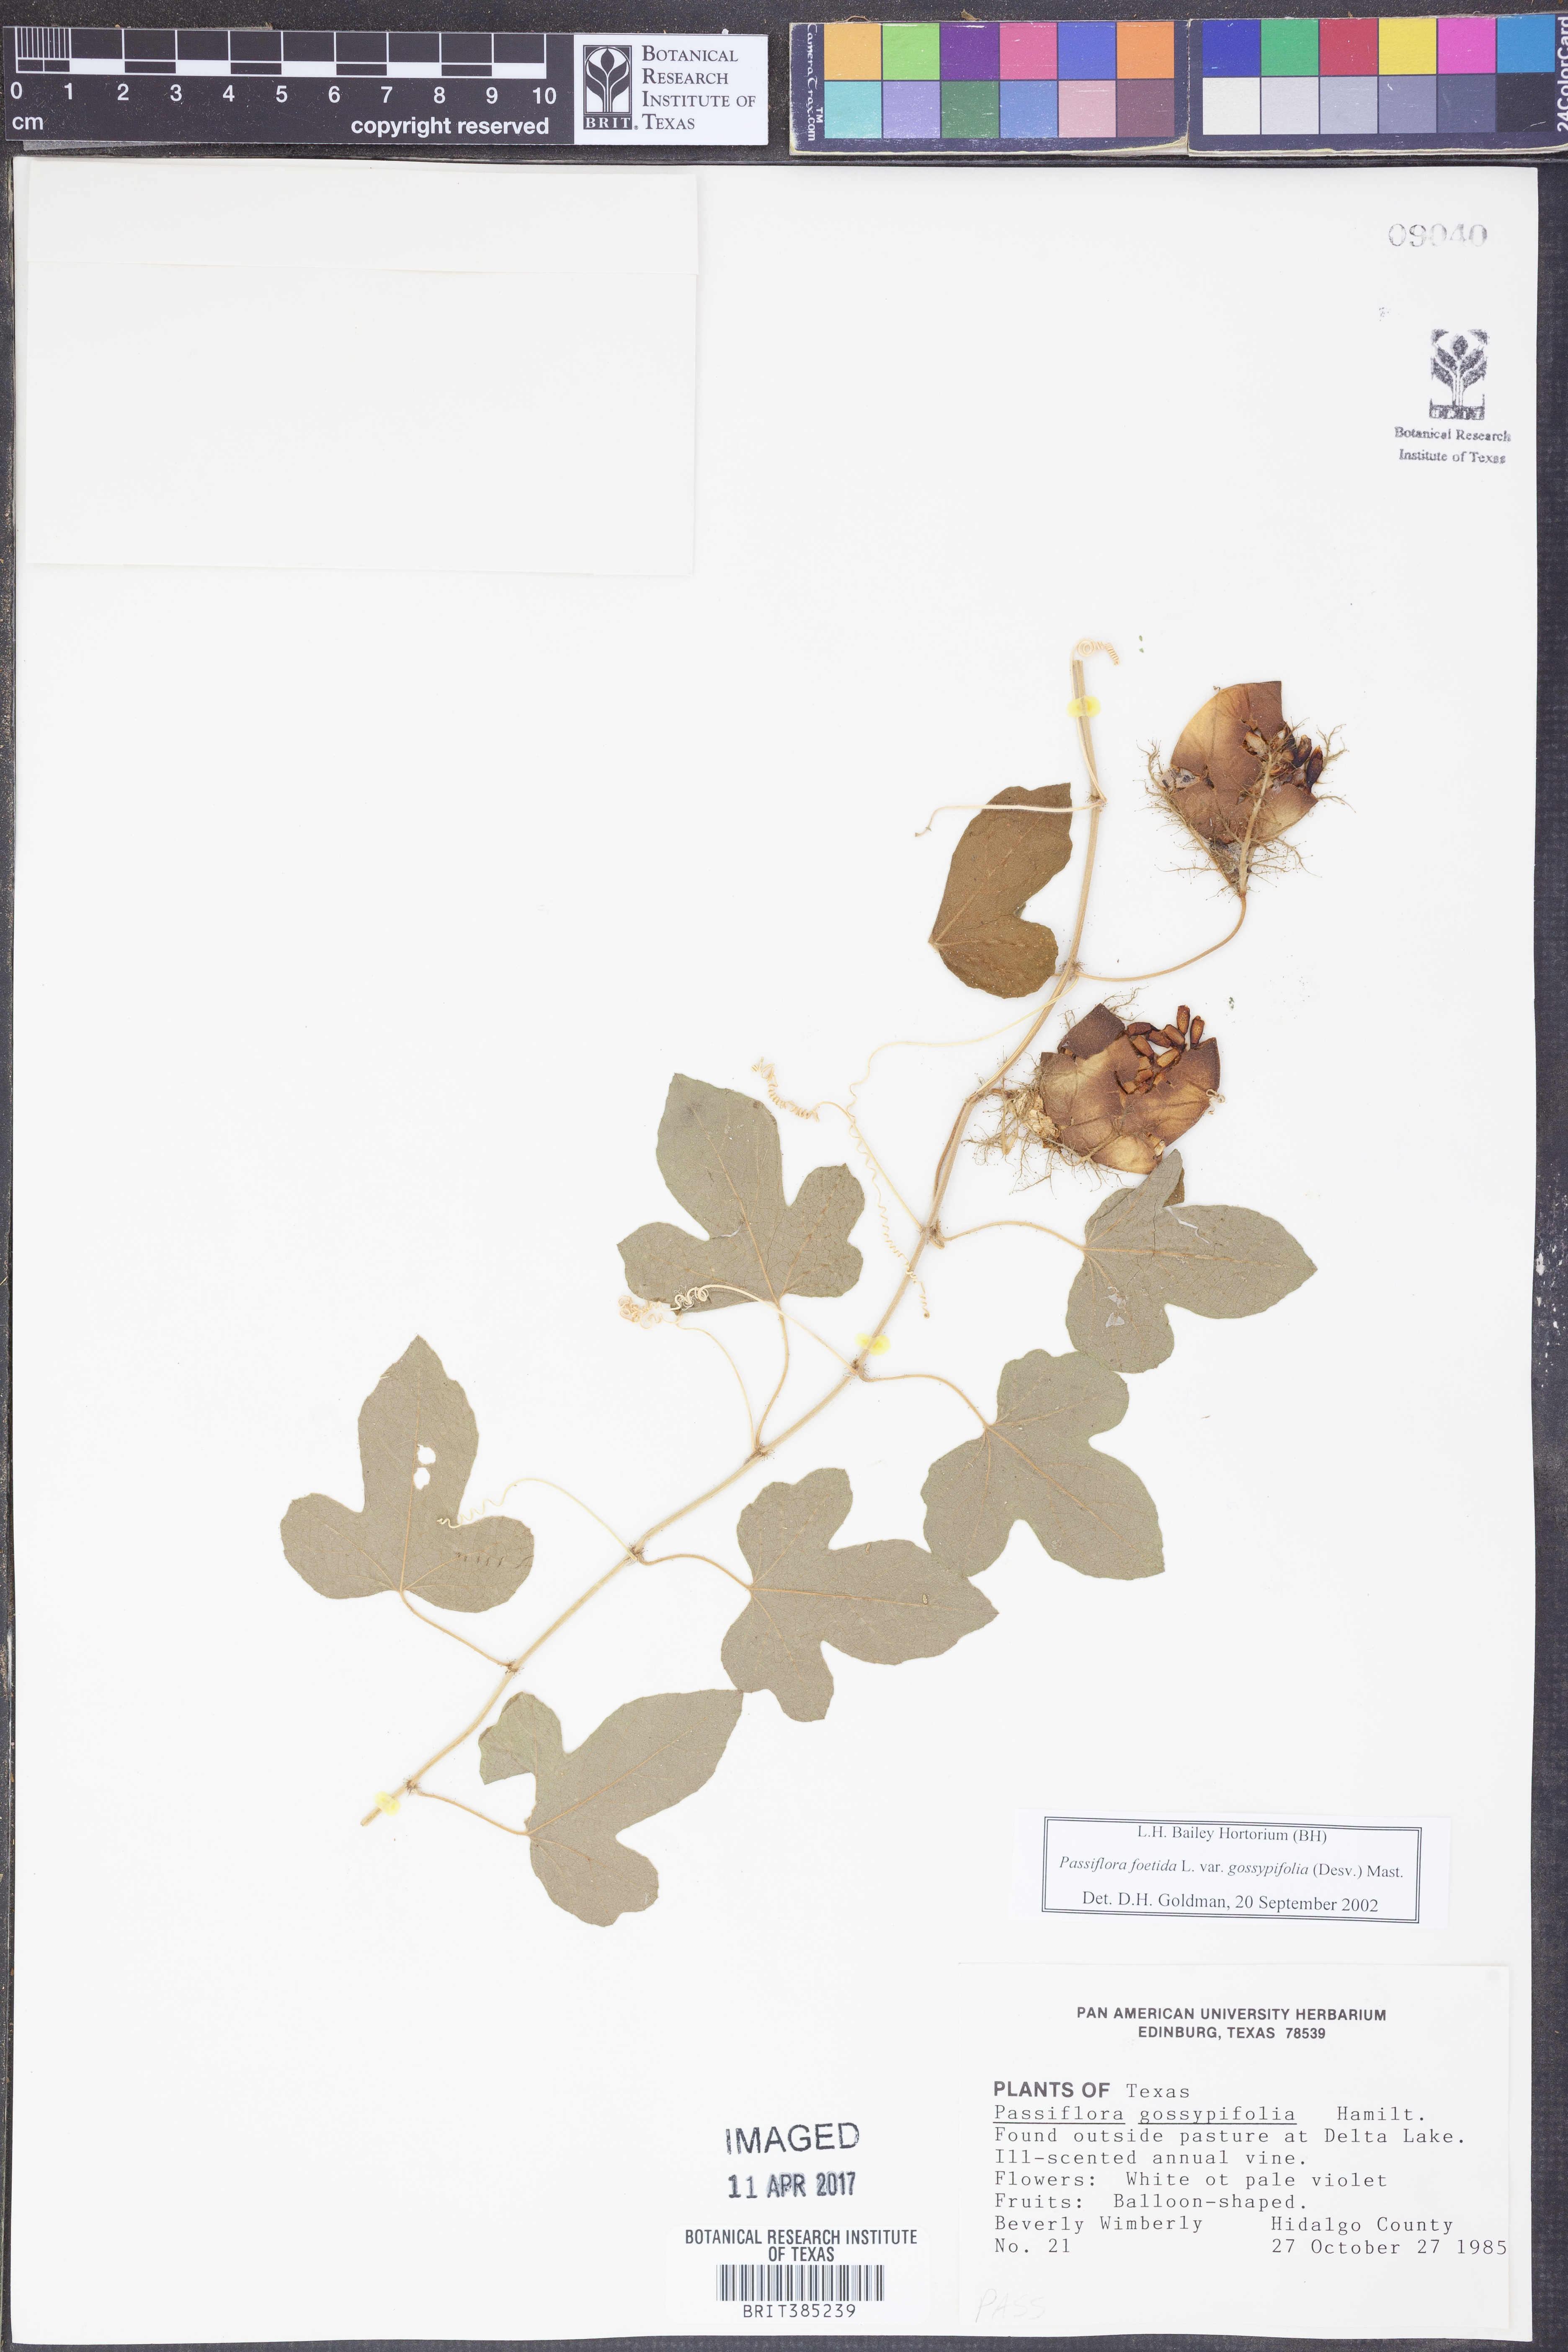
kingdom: Plantae
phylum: Tracheophyta
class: Magnoliopsida
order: Malpighiales
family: Passifloraceae
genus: Passiflora
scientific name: Passiflora foetida
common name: Fetid passionflower
